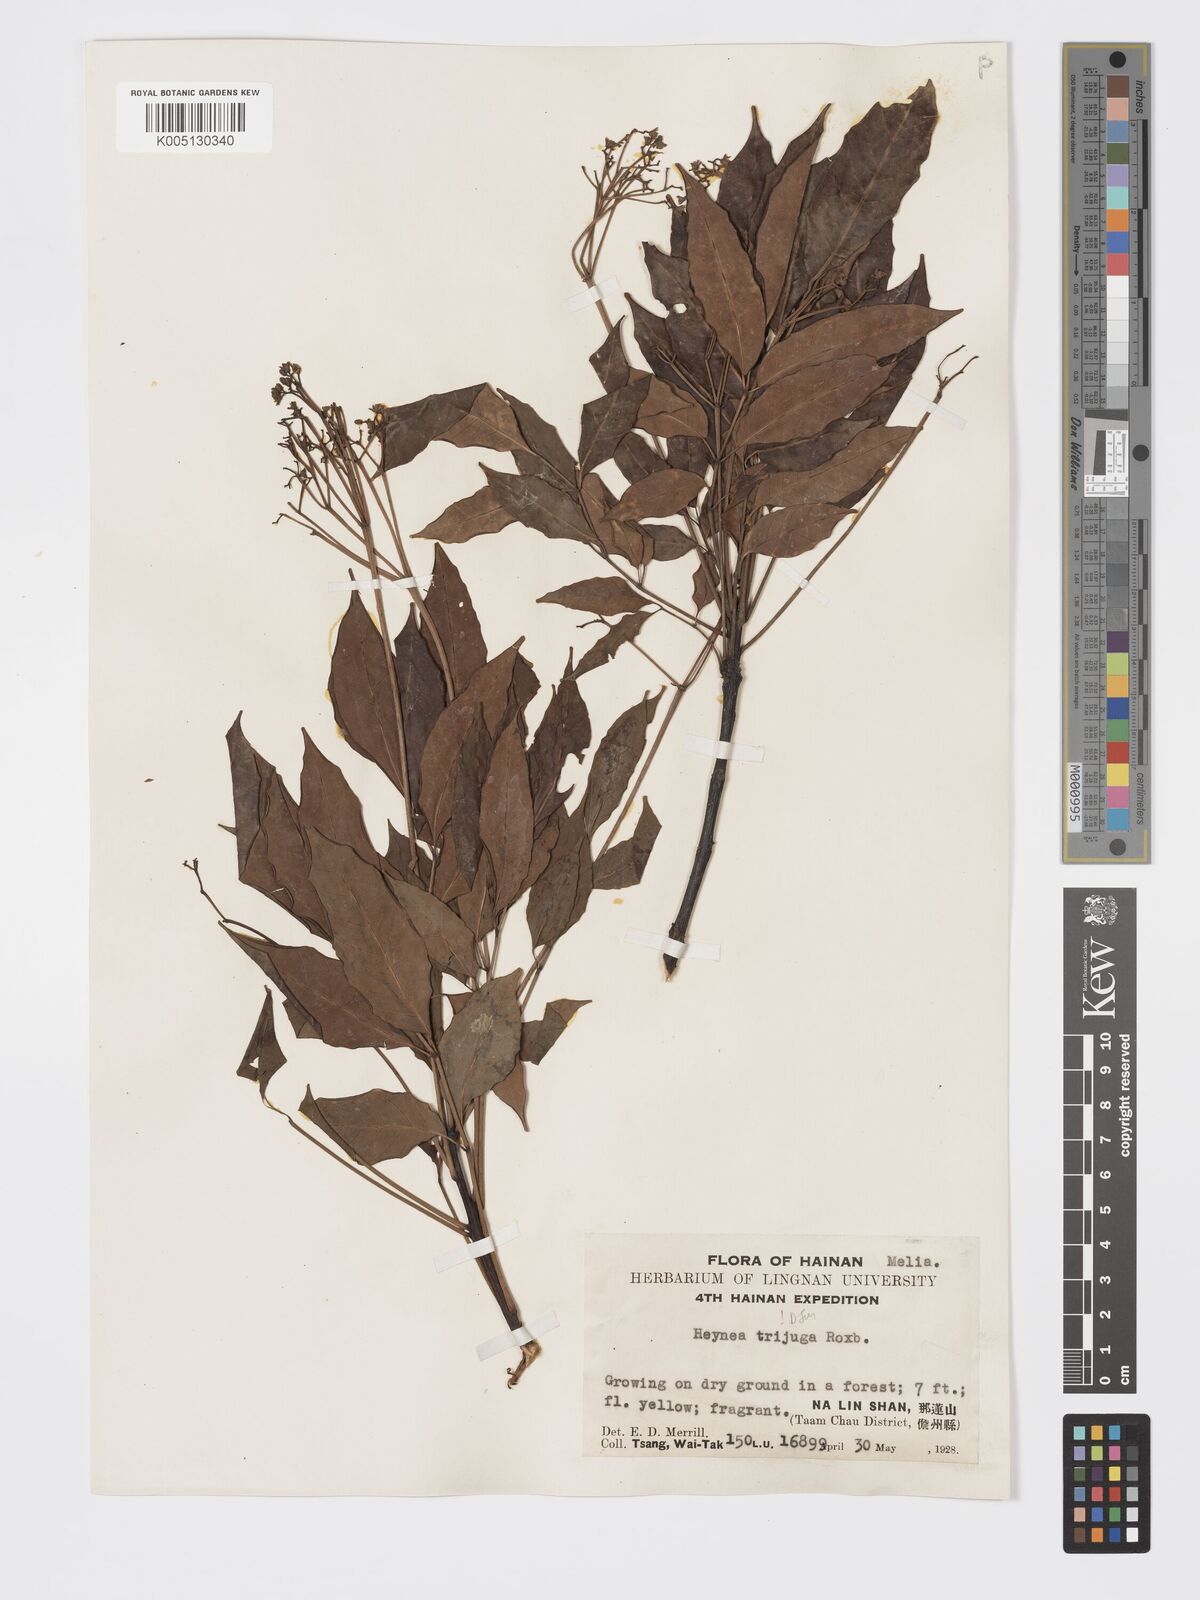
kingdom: Plantae
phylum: Tracheophyta
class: Magnoliopsida
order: Sapindales
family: Meliaceae
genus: Heynea
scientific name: Heynea trijuga
